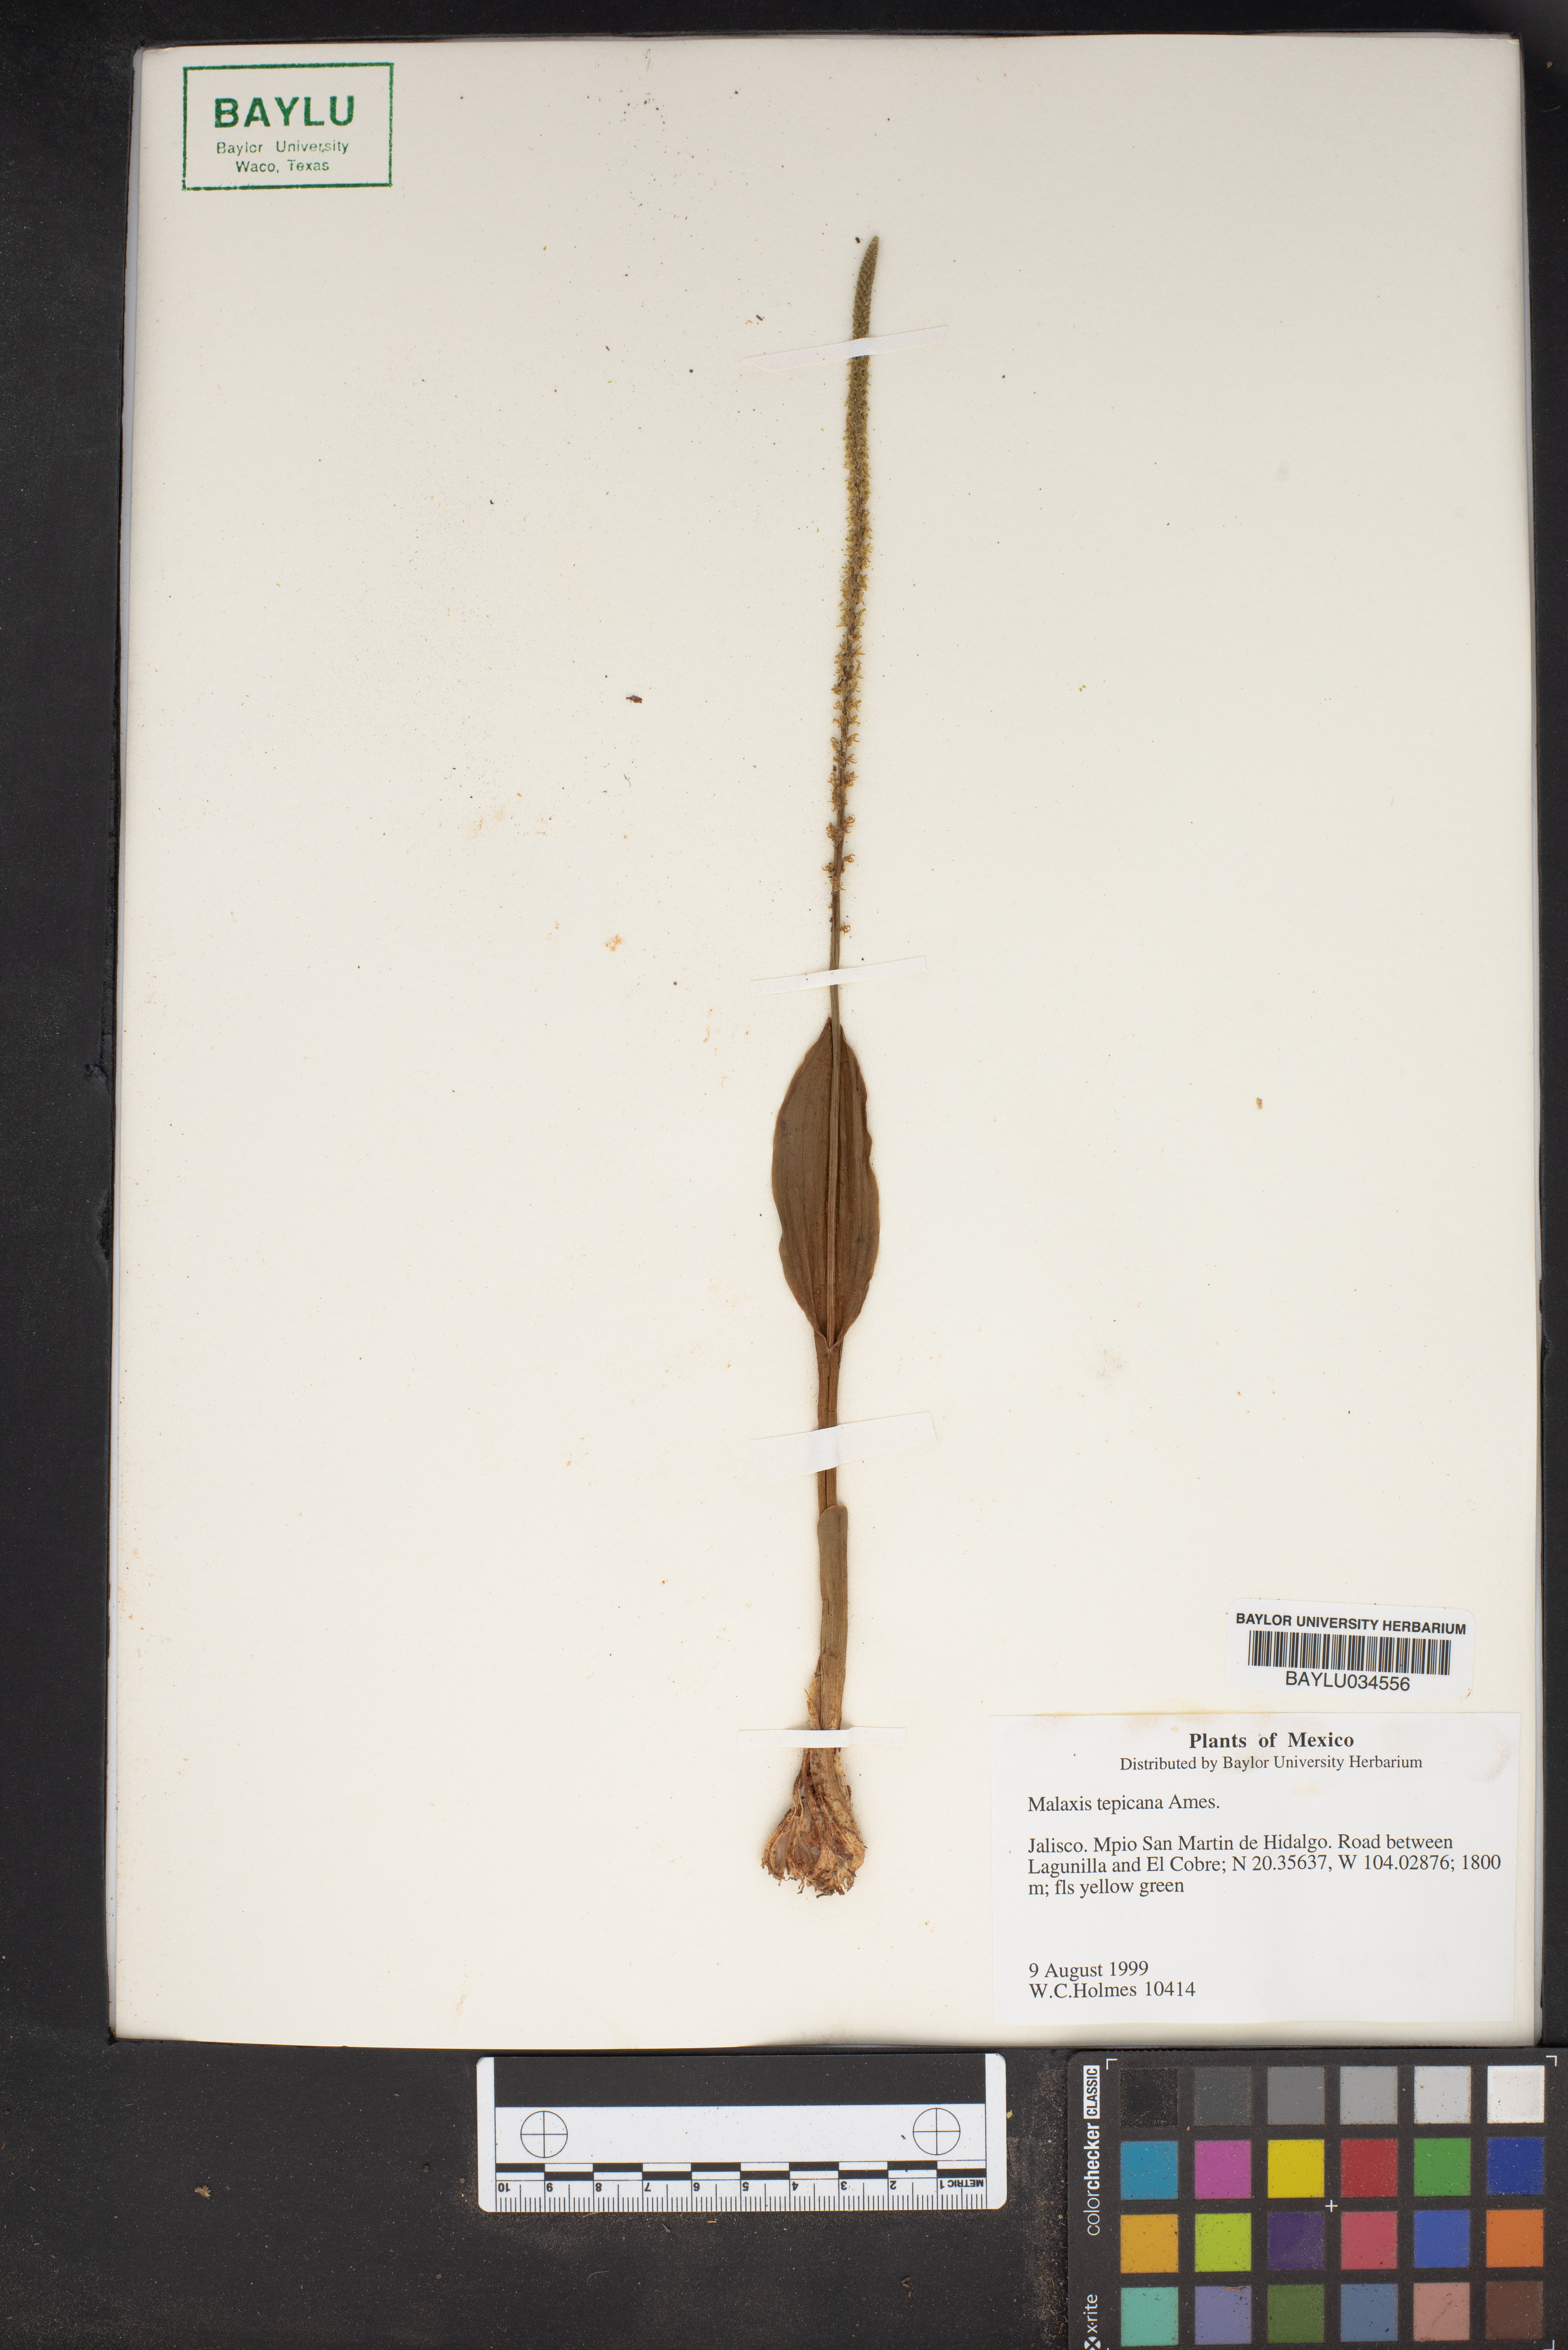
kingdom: Plantae
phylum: Tracheophyta
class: Liliopsida
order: Asparagales
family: Orchidaceae
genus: Malaxis
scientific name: Malaxis tepicana
